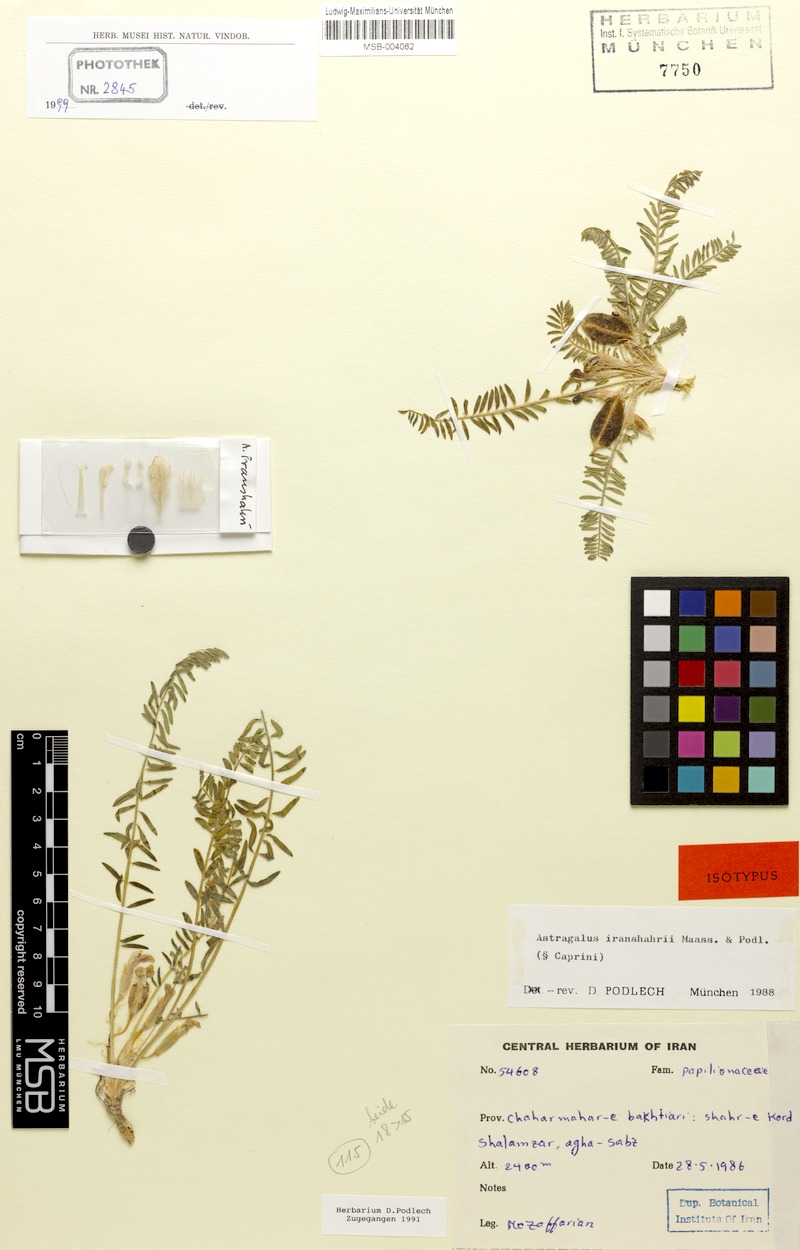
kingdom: Plantae
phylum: Tracheophyta
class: Magnoliopsida
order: Fabales
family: Fabaceae
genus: Astragalus
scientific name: Astragalus iranshahrii
